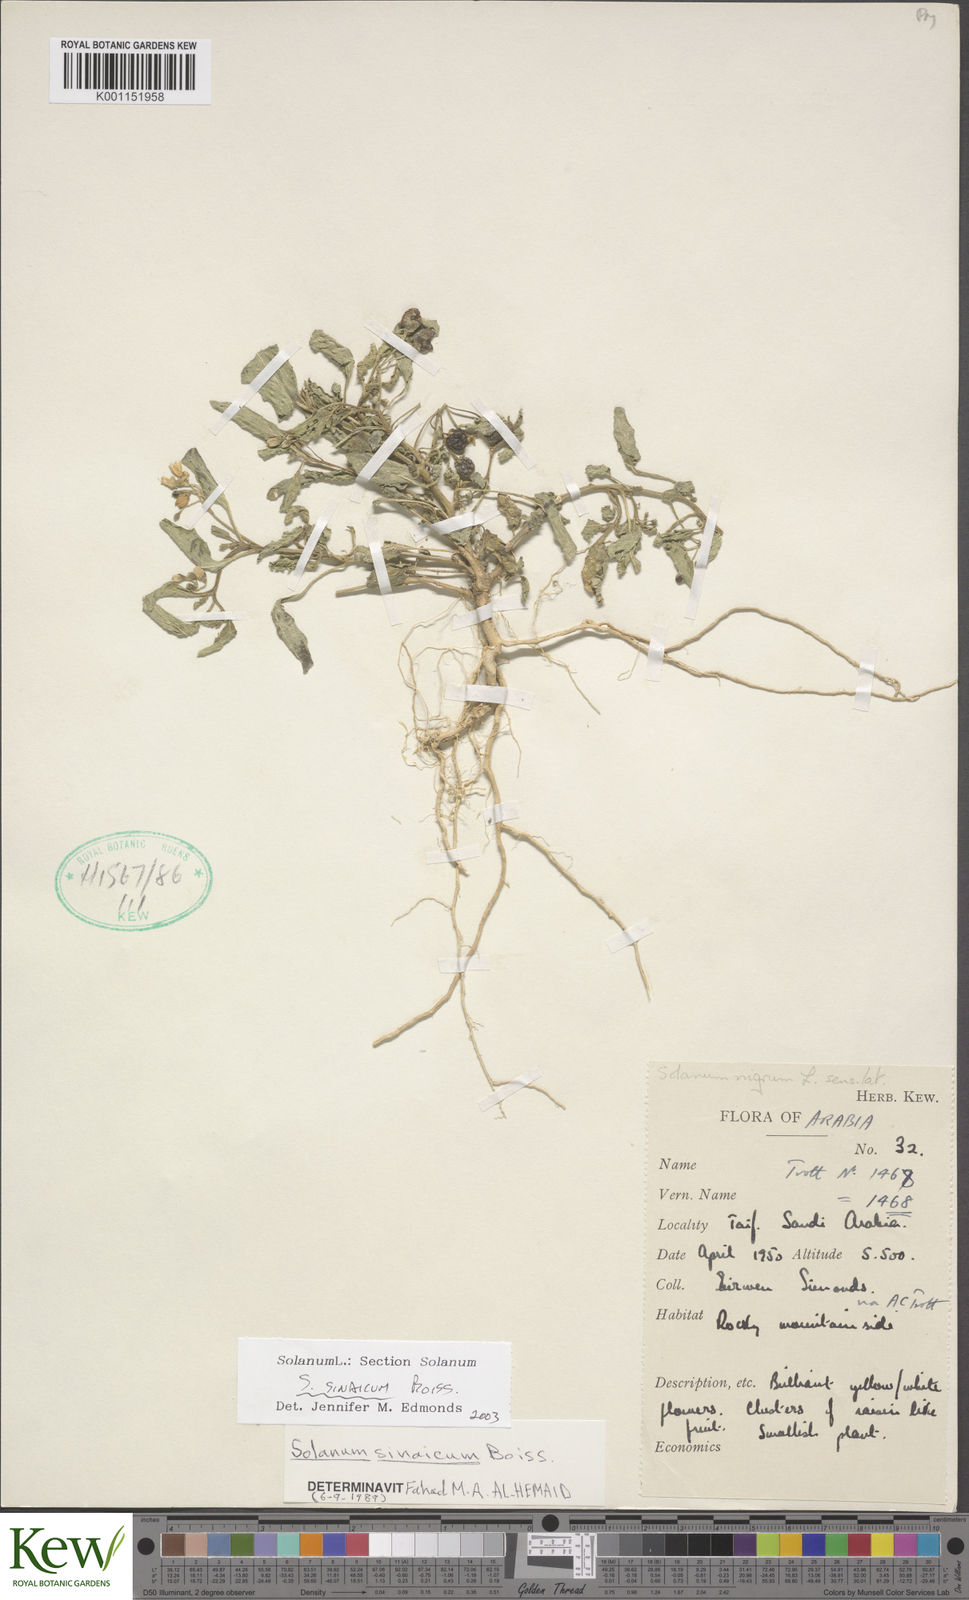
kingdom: Plantae
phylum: Tracheophyta
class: Magnoliopsida
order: Solanales
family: Solanaceae
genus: Solanum
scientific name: Solanum villosum
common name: Red nightshade
